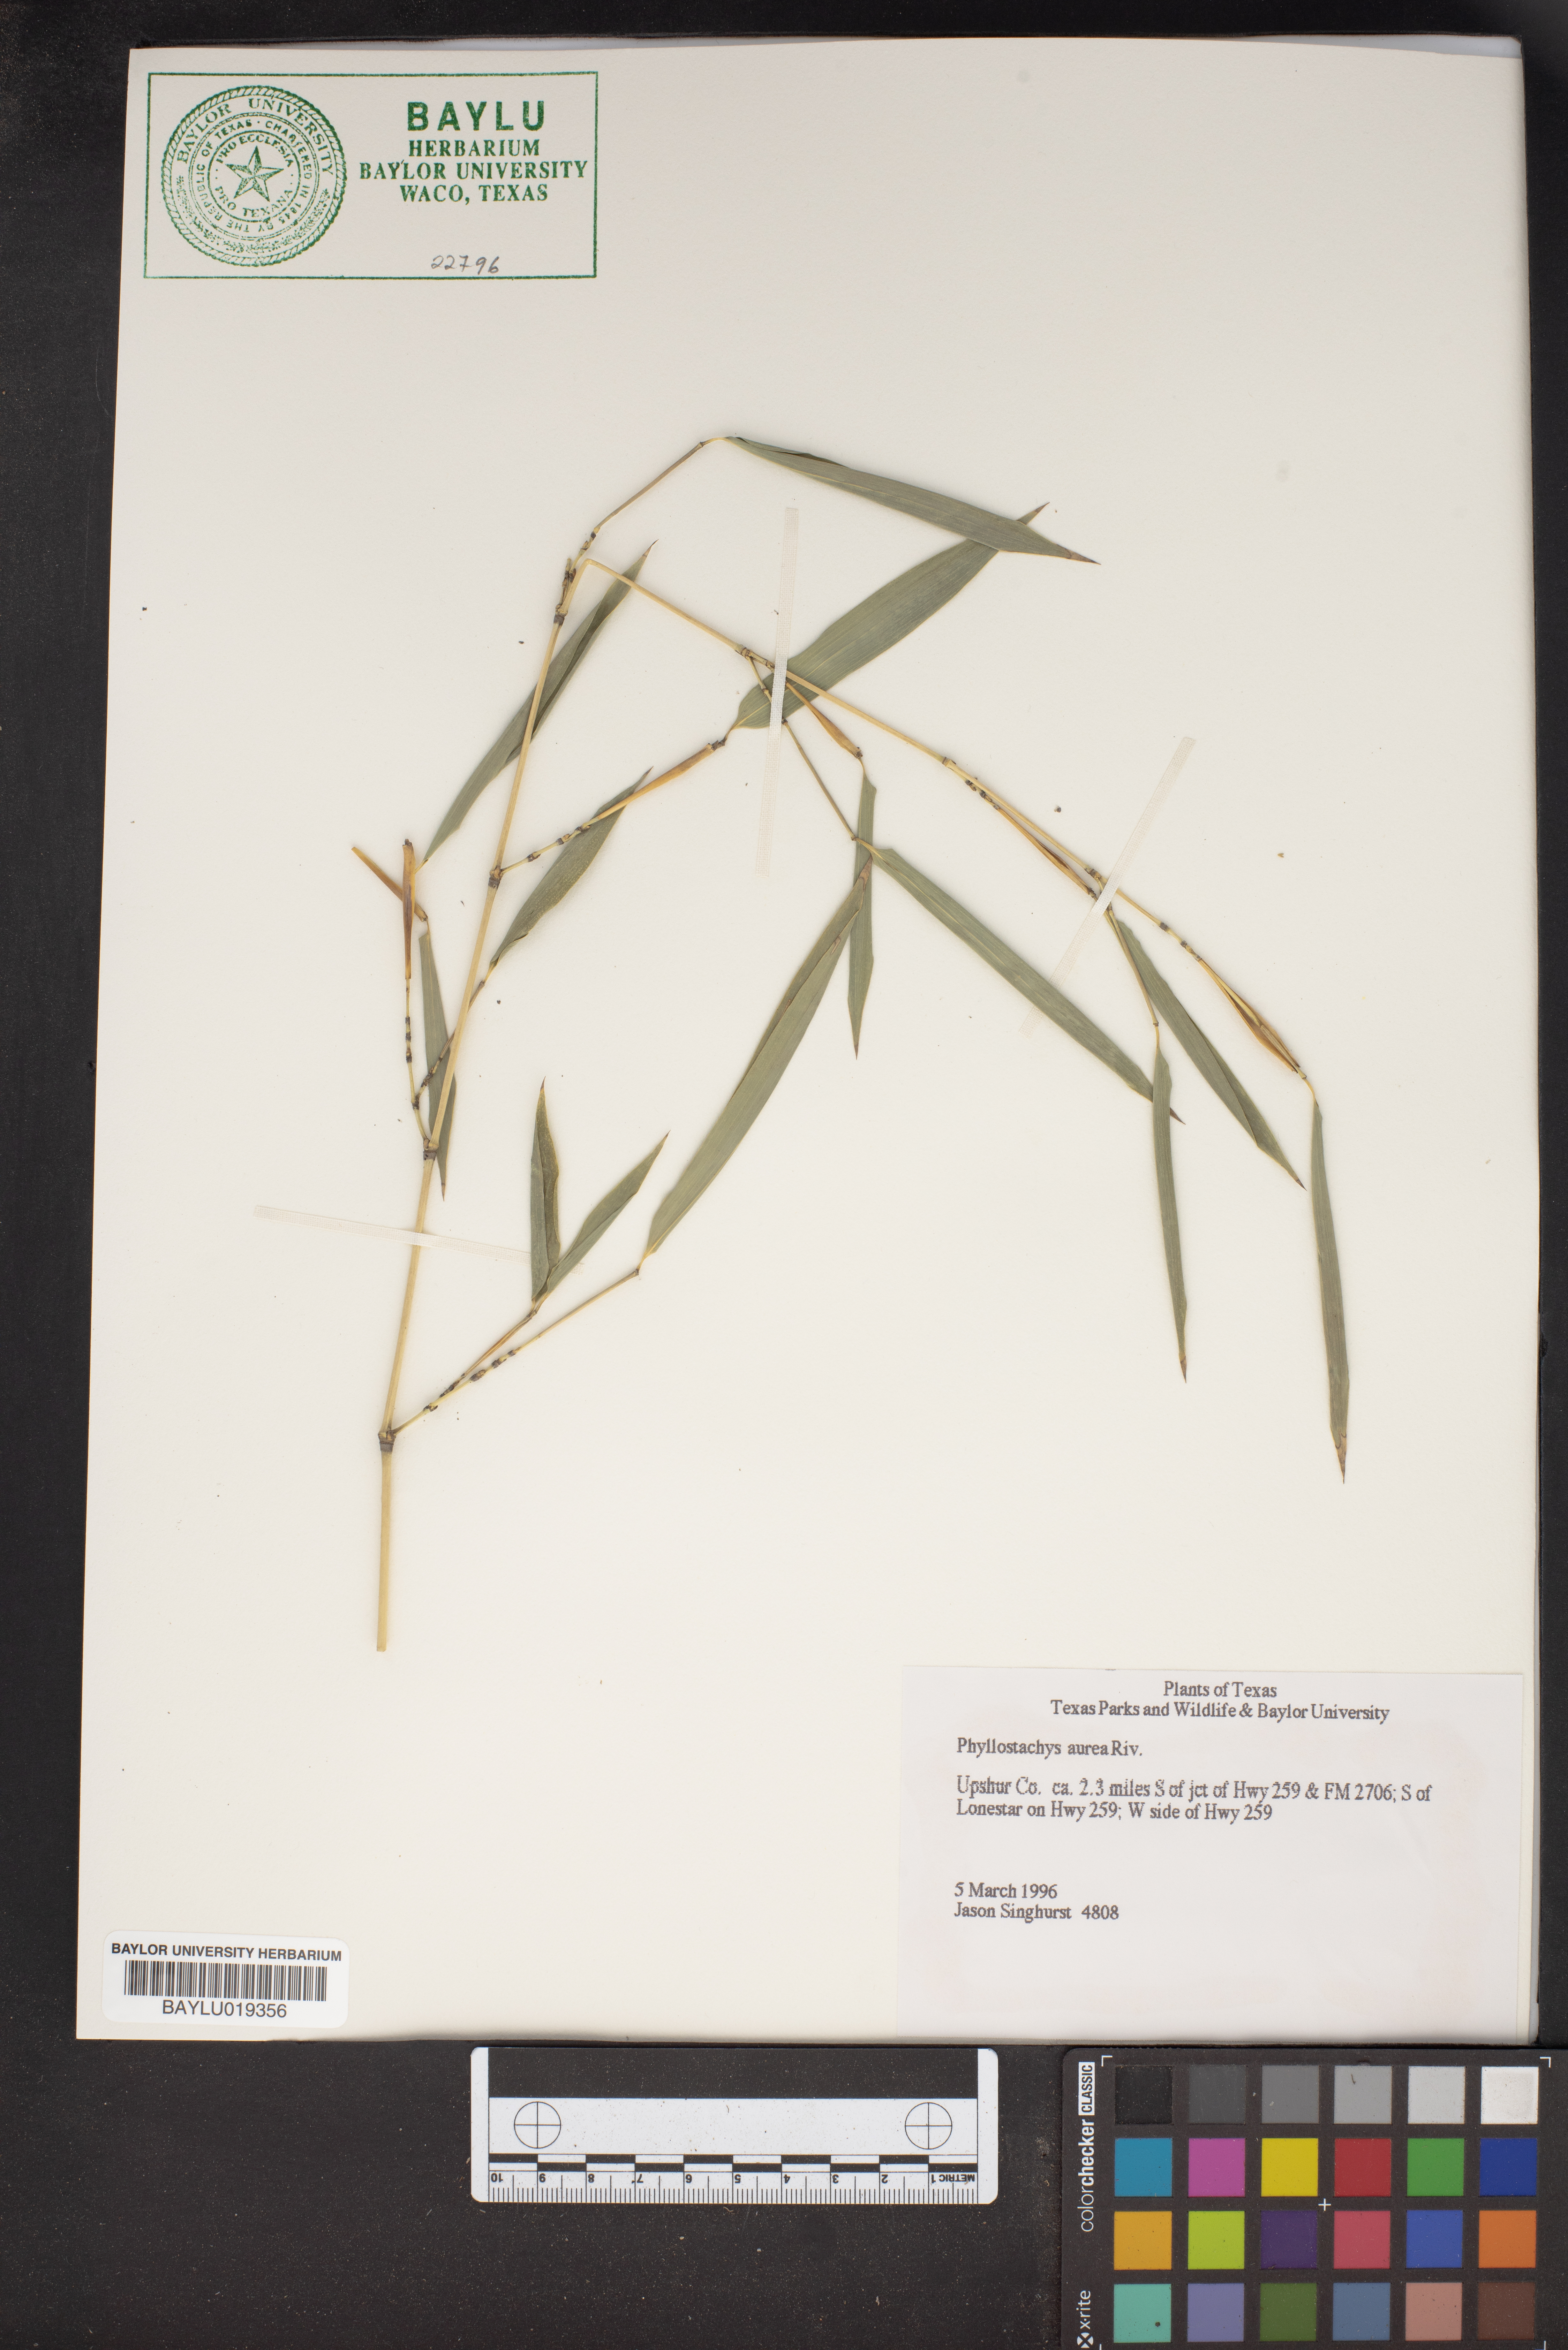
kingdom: Plantae
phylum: Tracheophyta
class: Liliopsida
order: Poales
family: Poaceae
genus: Phyllostachys
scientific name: Phyllostachys aurea
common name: Golden bamboo
